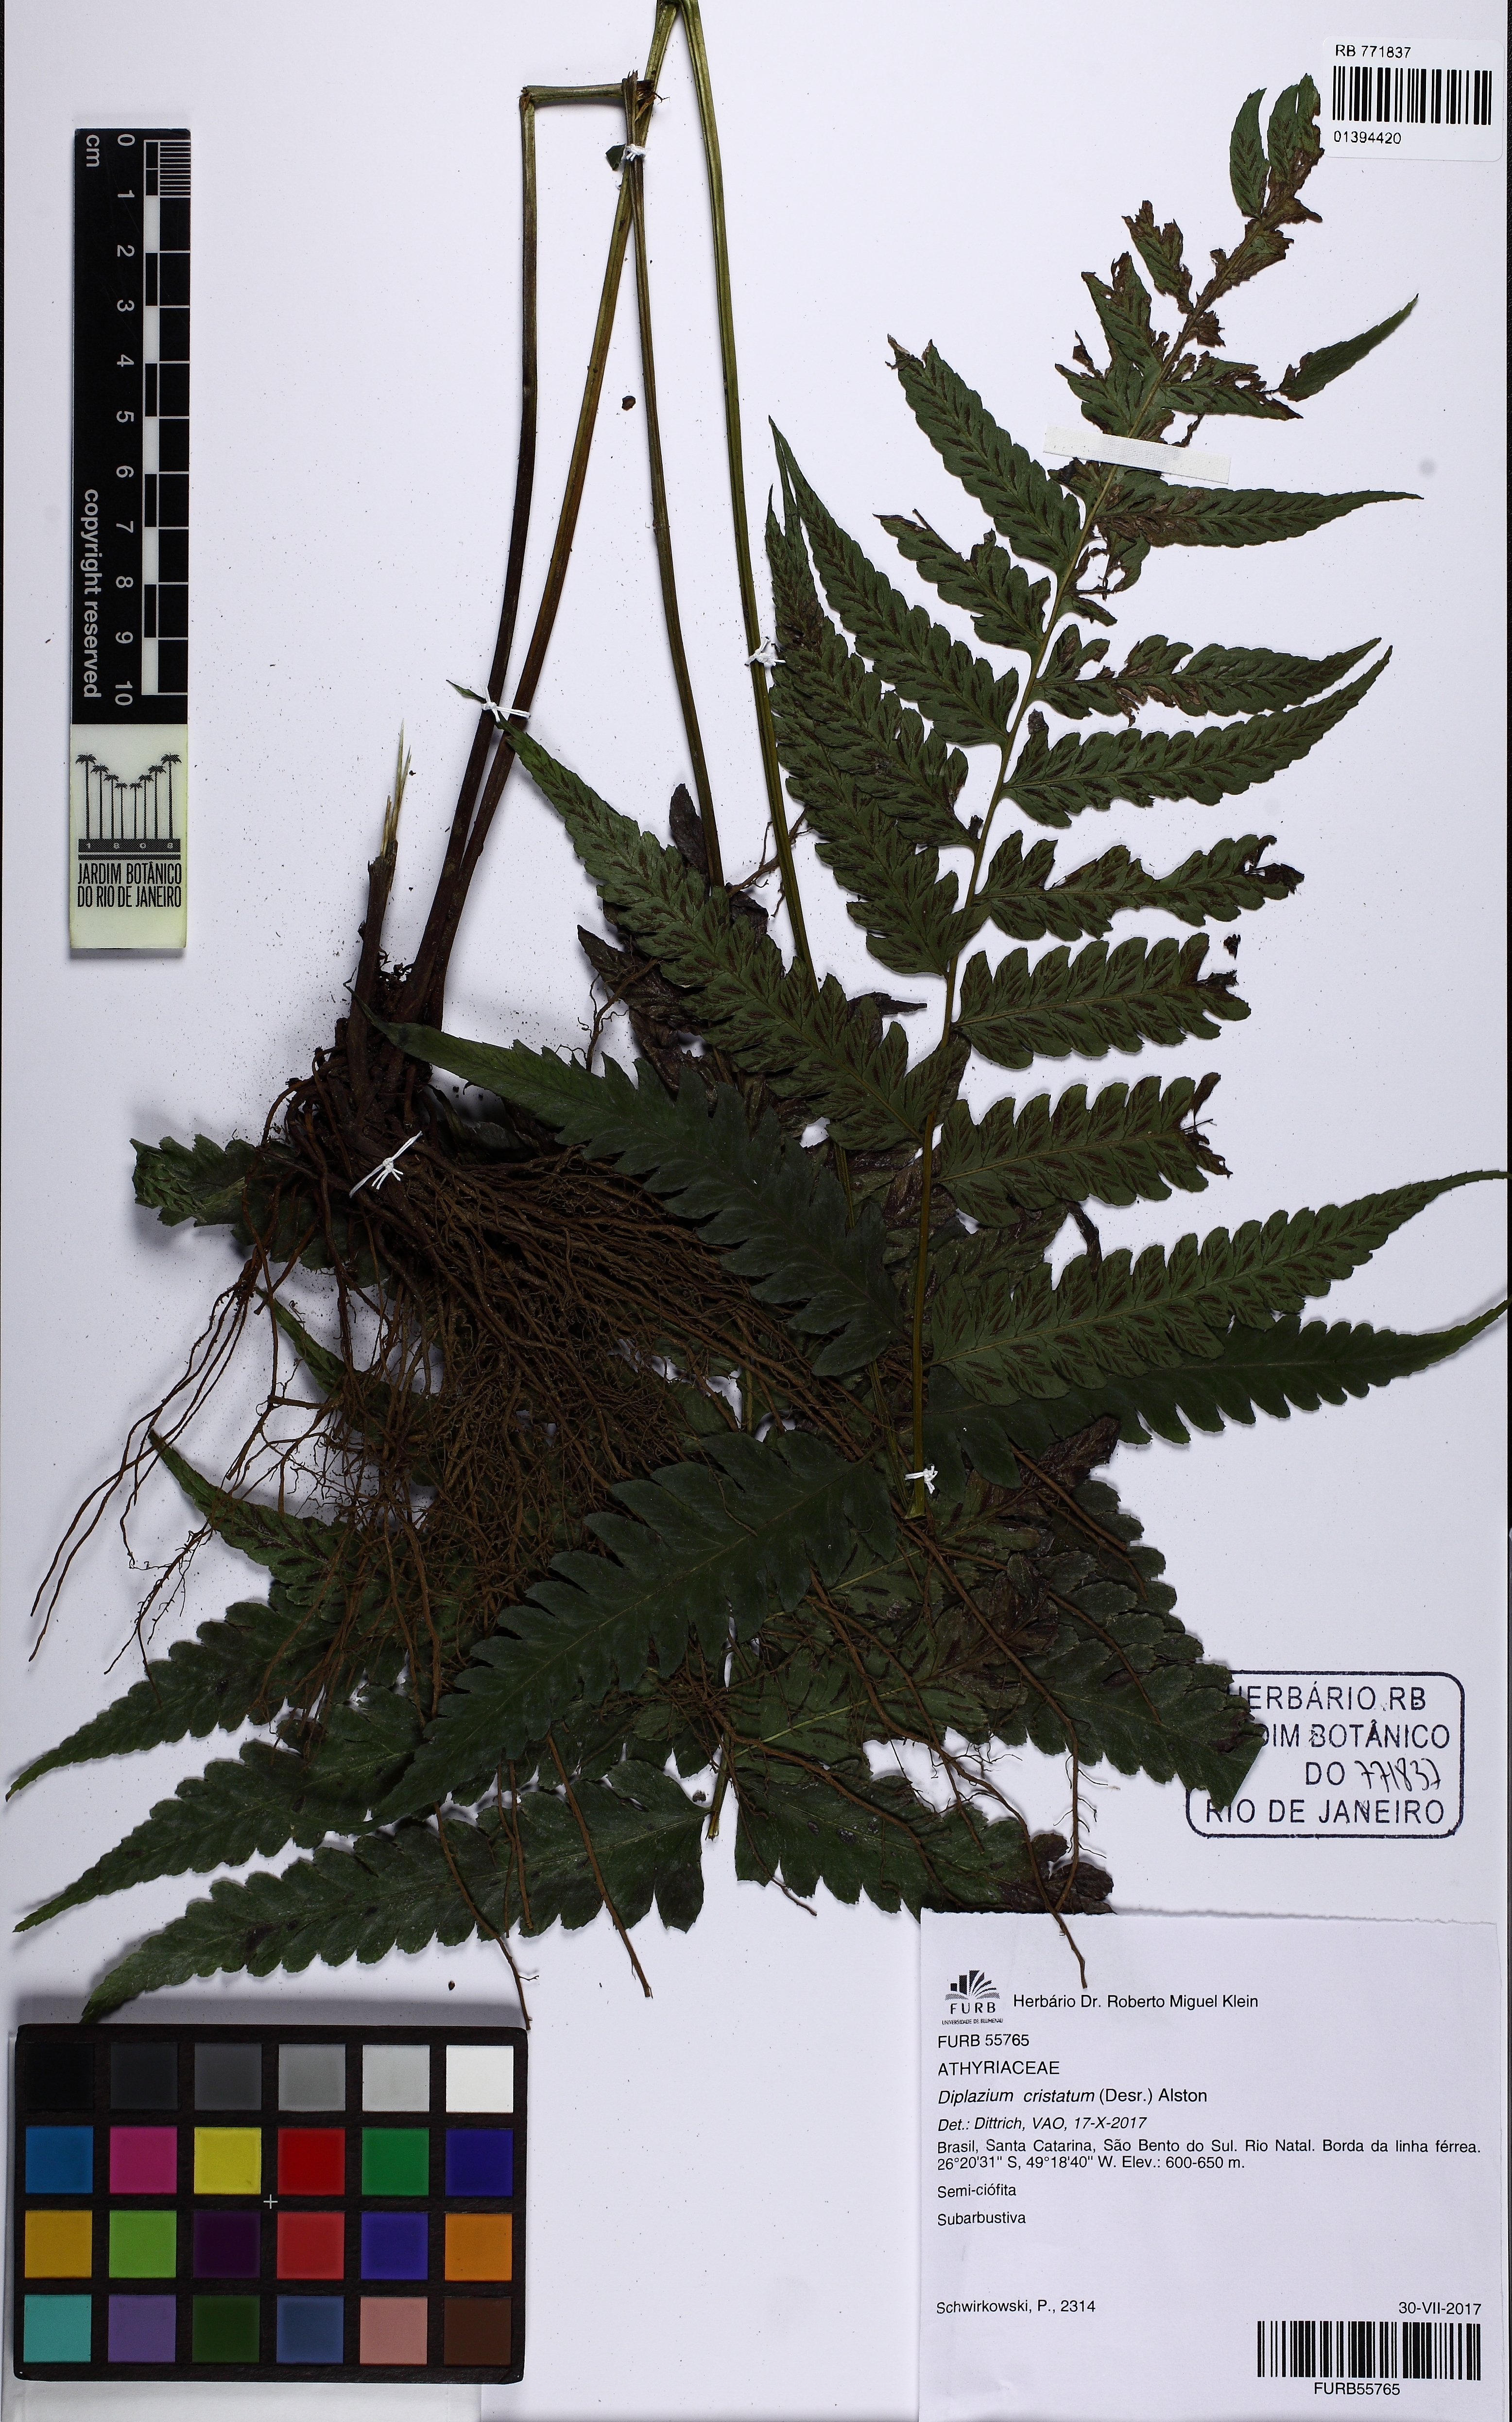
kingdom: Plantae
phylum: Tracheophyta
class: Polypodiopsida
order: Polypodiales
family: Athyriaceae
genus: Diplazium
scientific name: Diplazium cristatum
